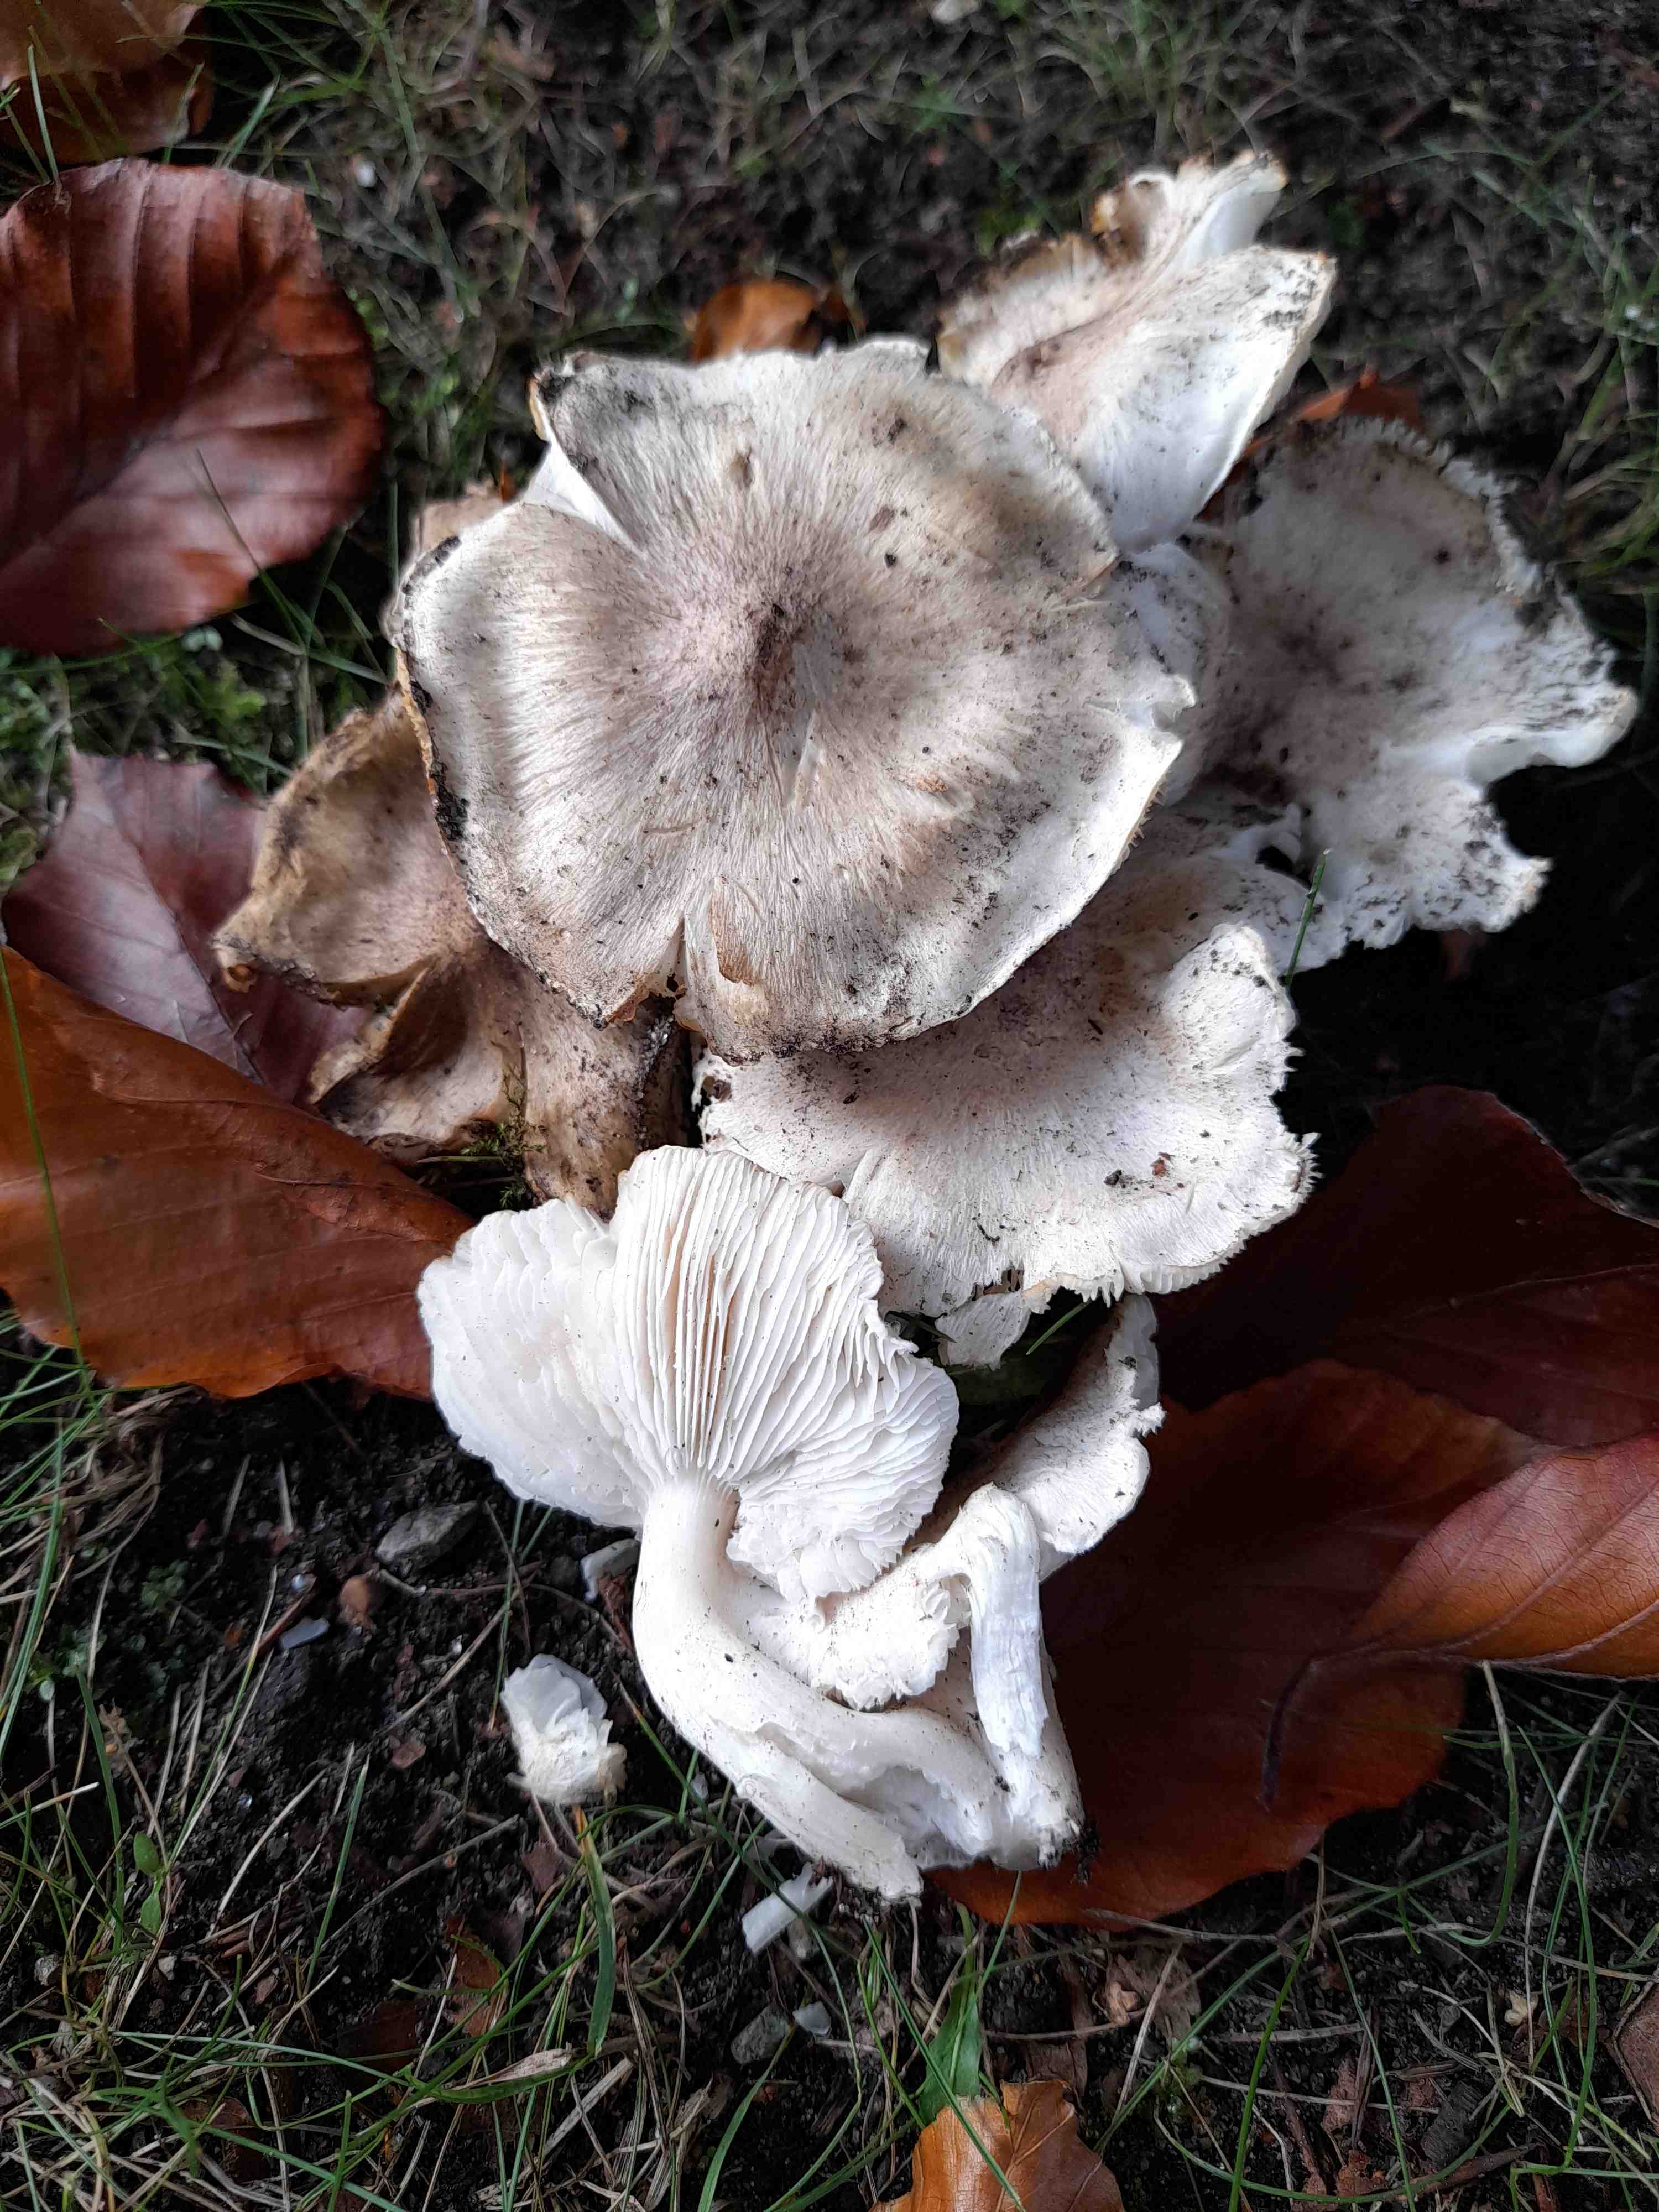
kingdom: Fungi
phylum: Basidiomycota
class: Agaricomycetes
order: Agaricales
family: Tricholomataceae
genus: Tricholoma
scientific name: Tricholoma scalpturatum
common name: gulplettet ridderhat
